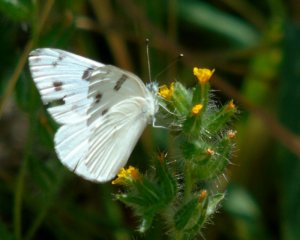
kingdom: Animalia
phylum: Arthropoda
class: Insecta
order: Lepidoptera
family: Pieridae
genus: Pontia
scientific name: Pontia protodice
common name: Checkered White
